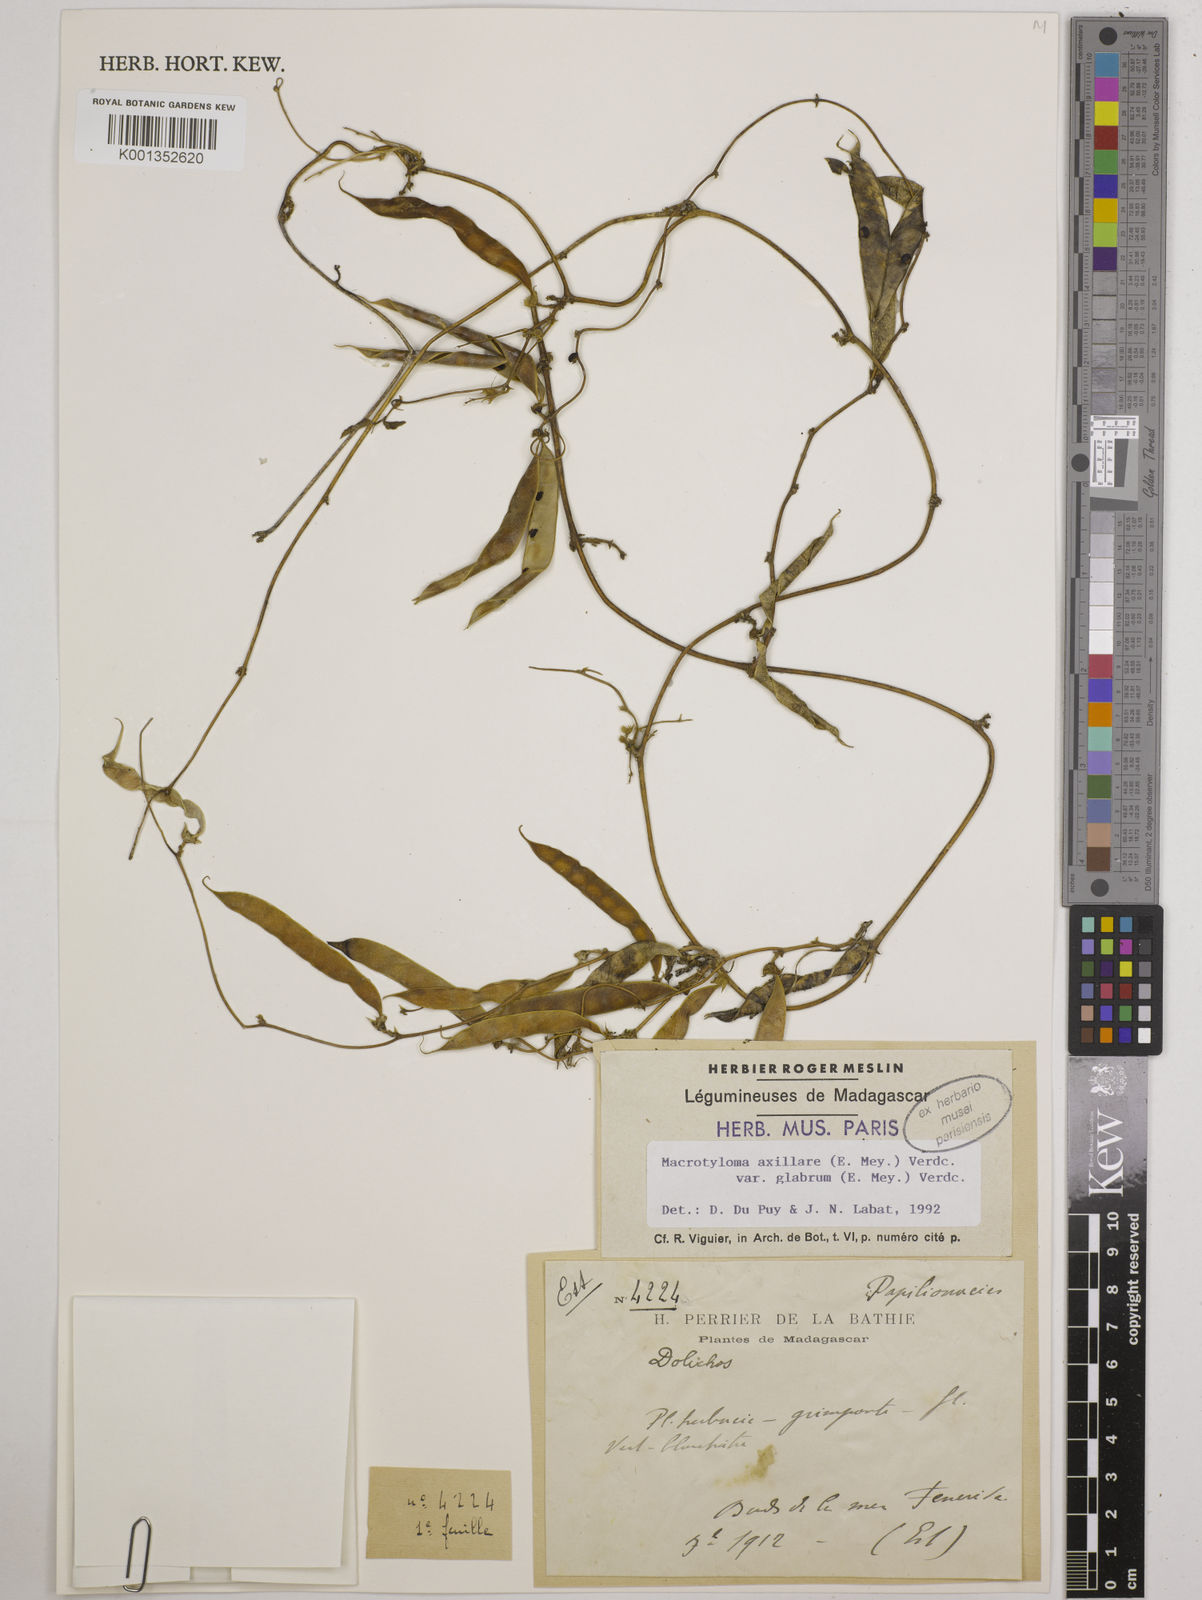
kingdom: Plantae
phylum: Tracheophyta
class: Magnoliopsida
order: Fabales
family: Fabaceae
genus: Macrotyloma
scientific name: Macrotyloma
